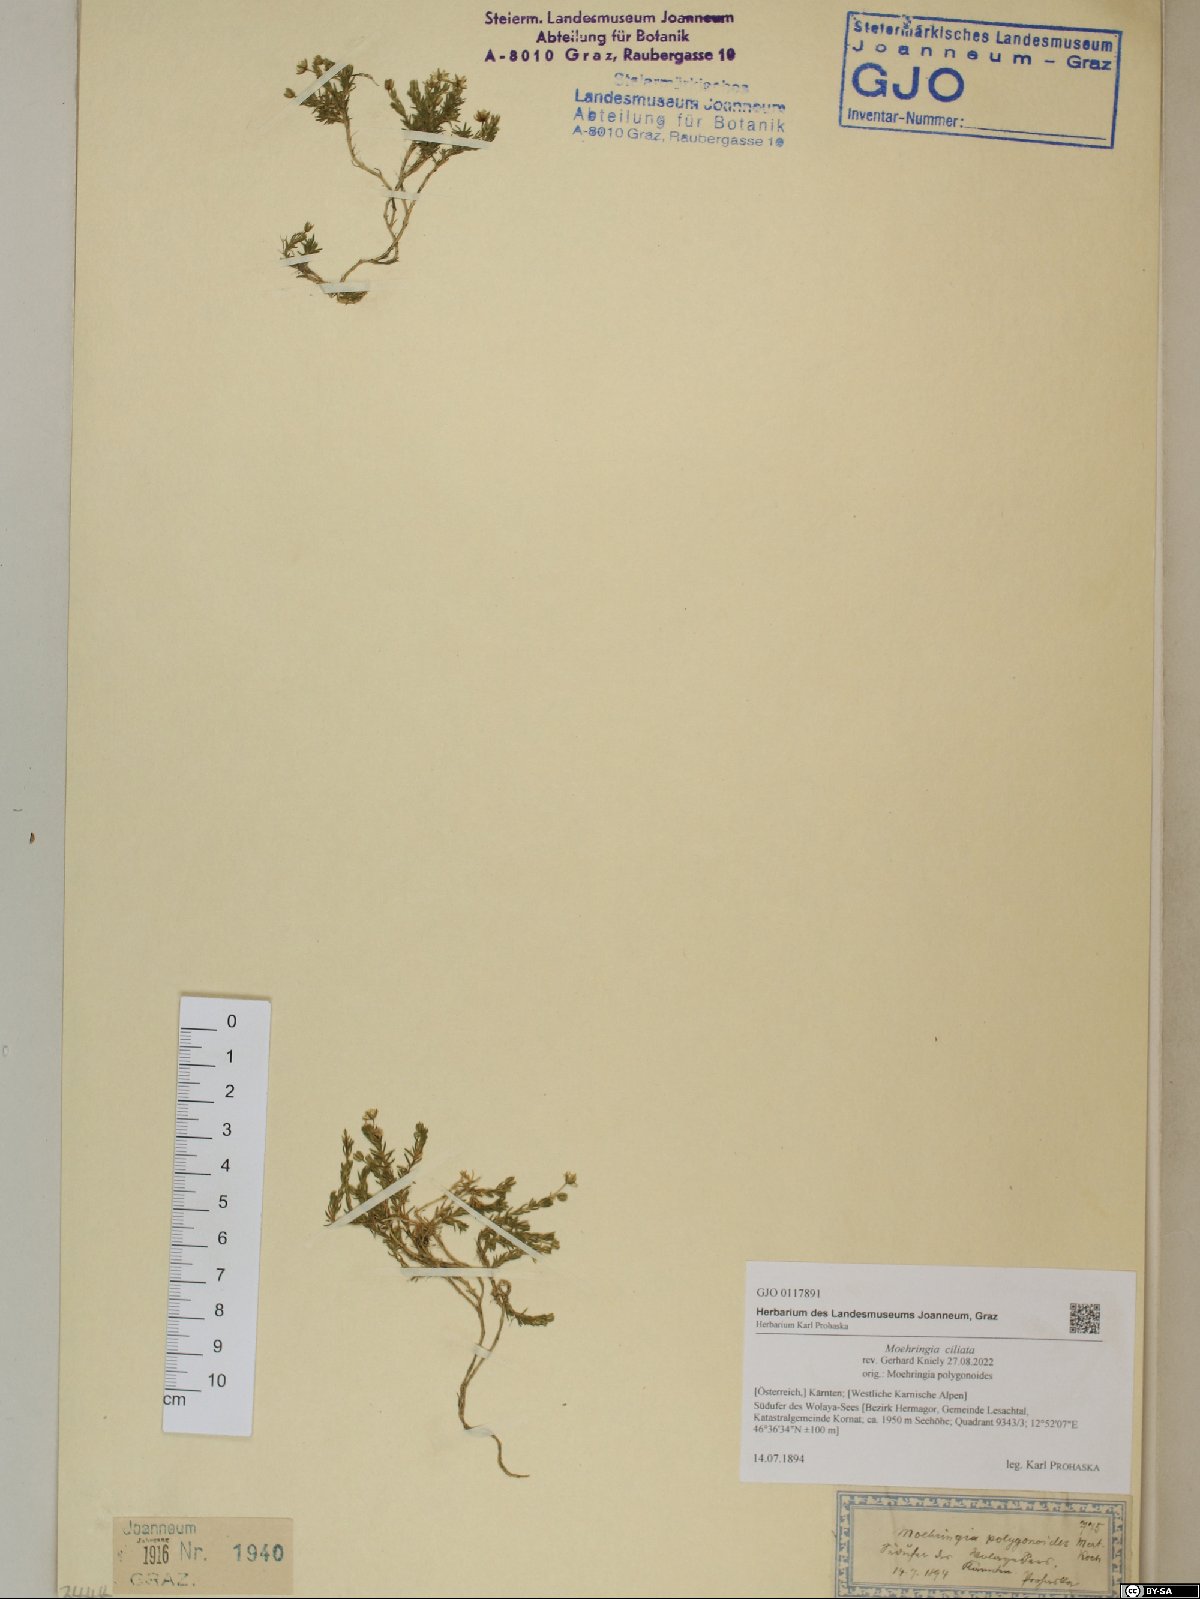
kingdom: Plantae
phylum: Tracheophyta
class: Magnoliopsida
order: Caryophyllales
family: Caryophyllaceae
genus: Moehringia
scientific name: Moehringia ciliata
